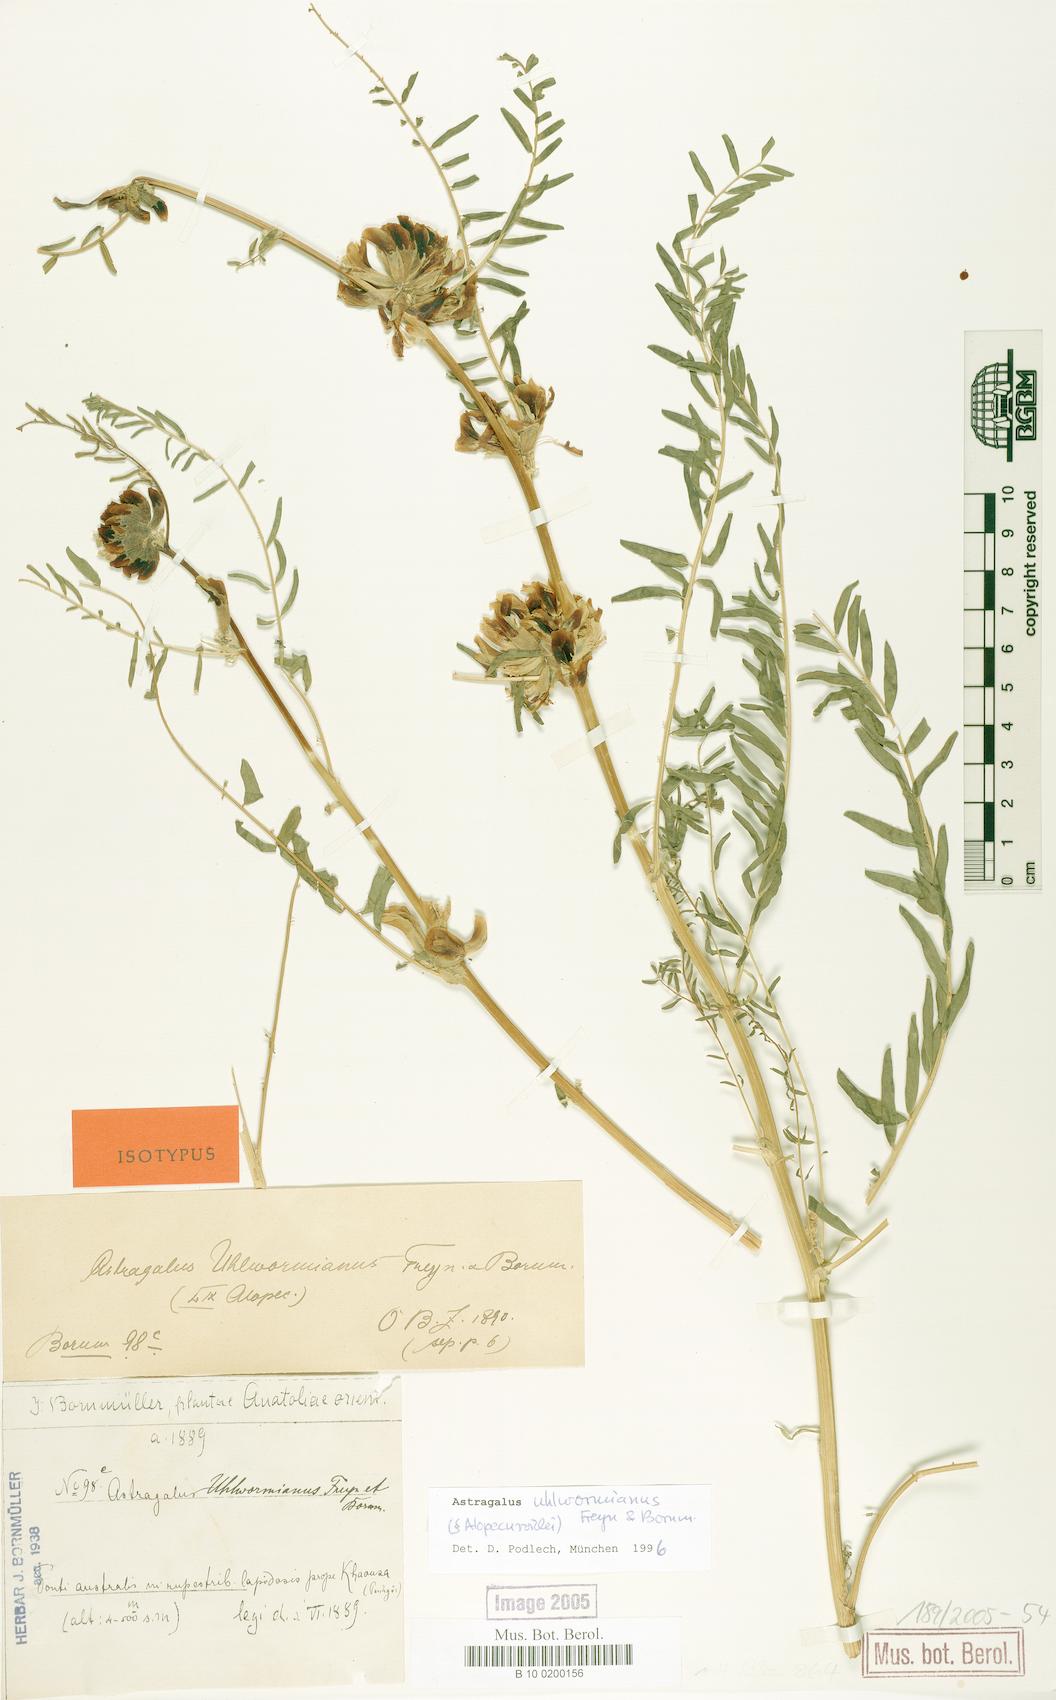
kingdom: Plantae
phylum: Tracheophyta
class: Magnoliopsida
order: Fabales
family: Fabaceae
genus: Astragalus
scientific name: Astragalus uhlwormianus
